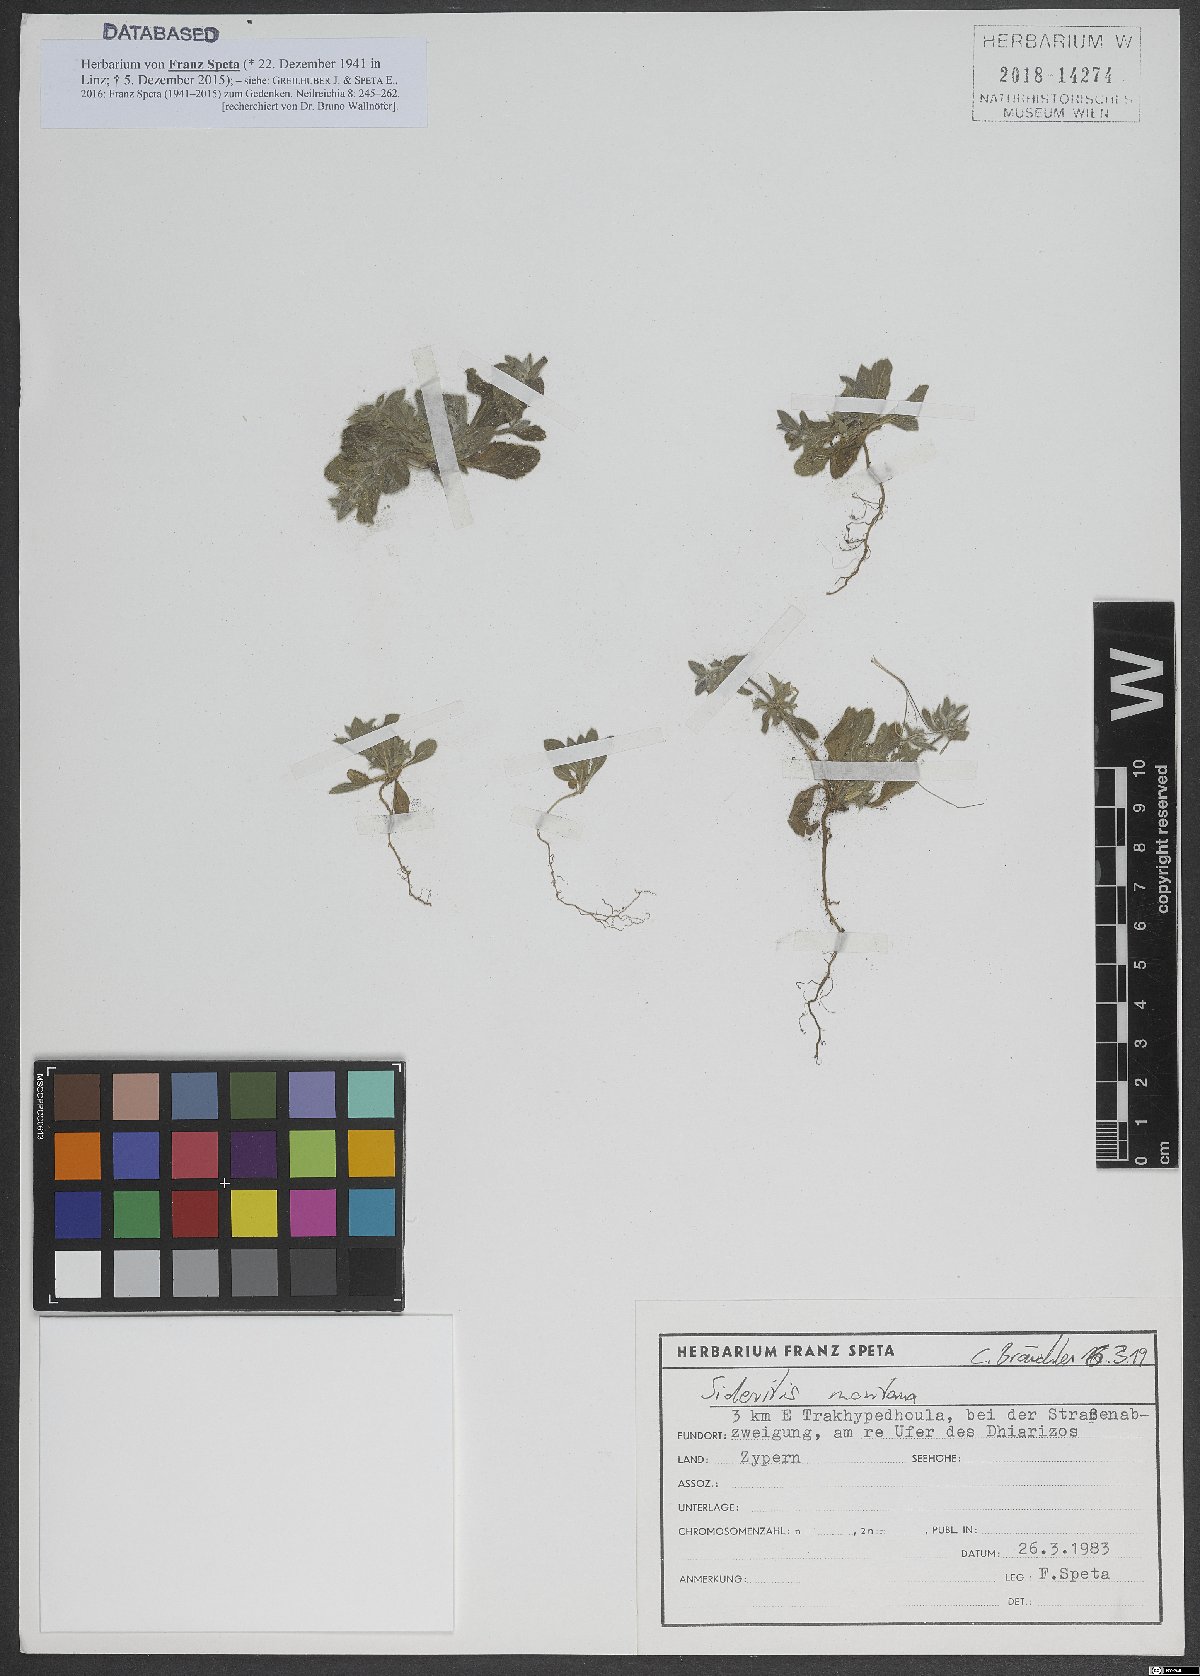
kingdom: Plantae
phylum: Tracheophyta
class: Magnoliopsida
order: Lamiales
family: Lamiaceae
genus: Sideritis
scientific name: Sideritis montana
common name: Mountain ironwort
